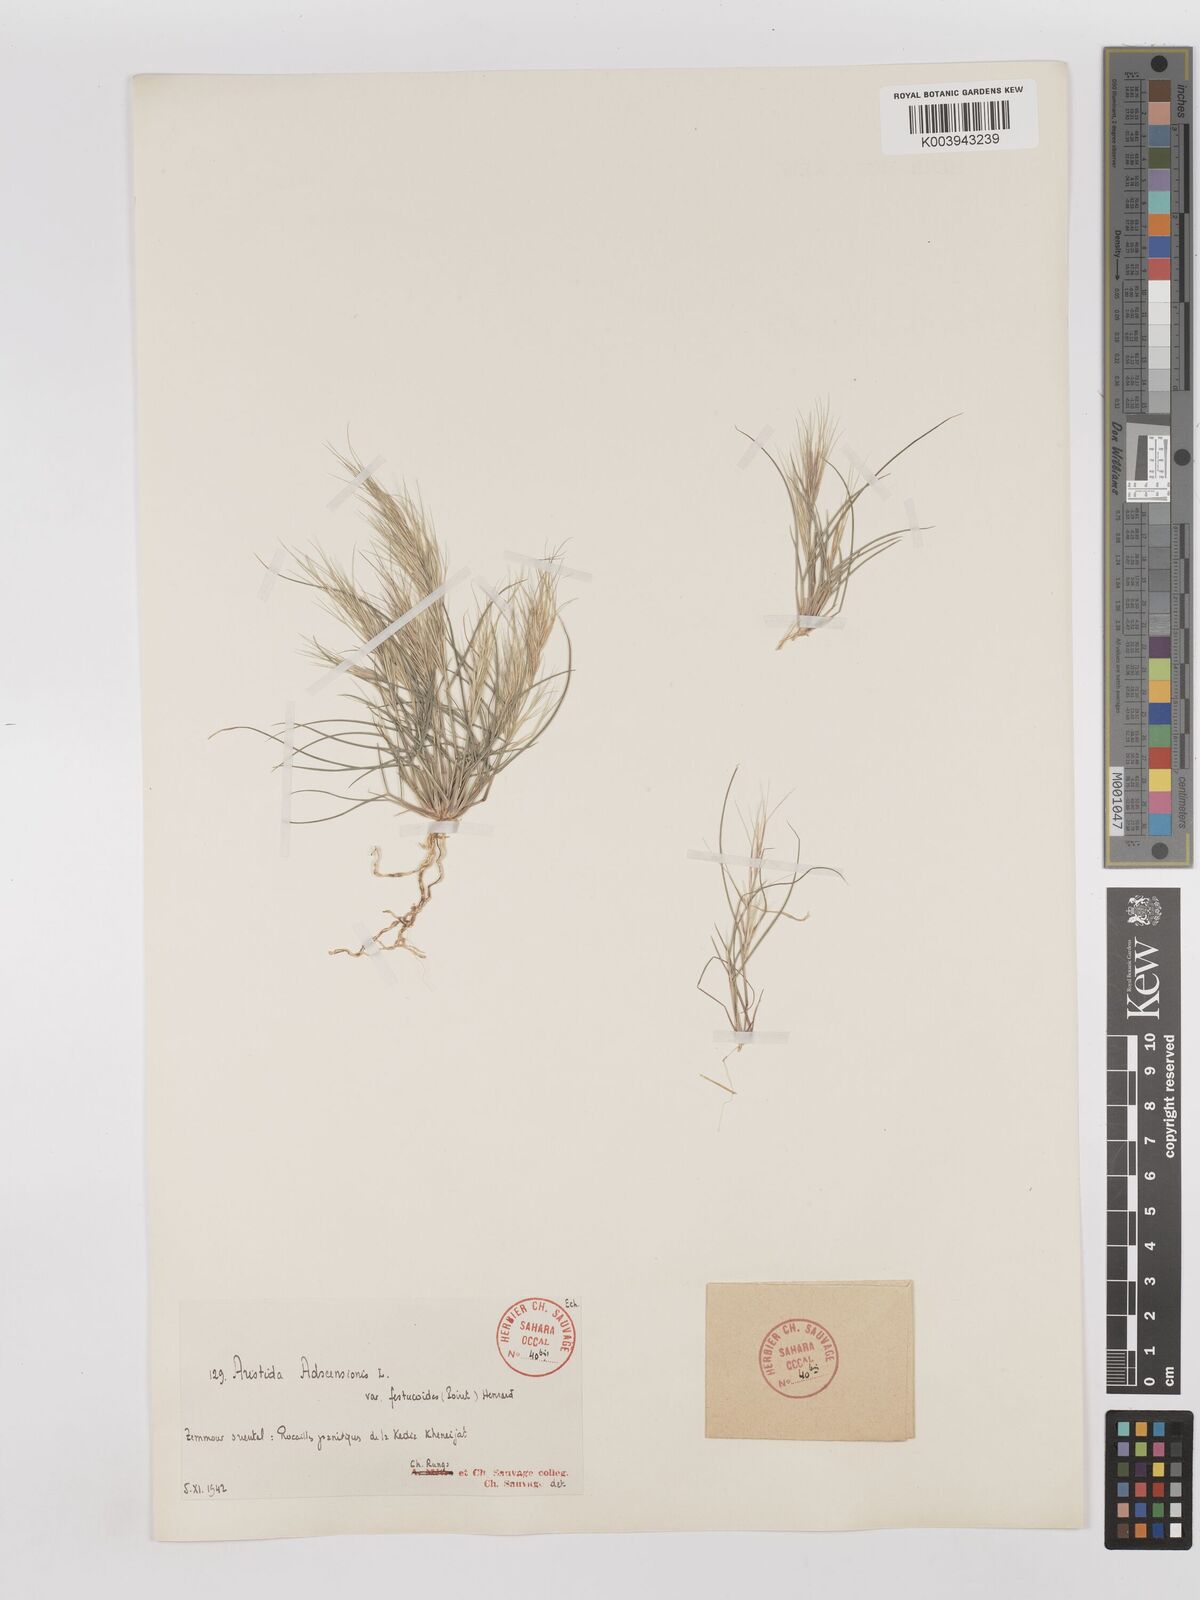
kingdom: Plantae
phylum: Tracheophyta
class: Liliopsida
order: Poales
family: Poaceae
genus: Aristida
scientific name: Aristida adscensionis
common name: Sixweeks threeawn
